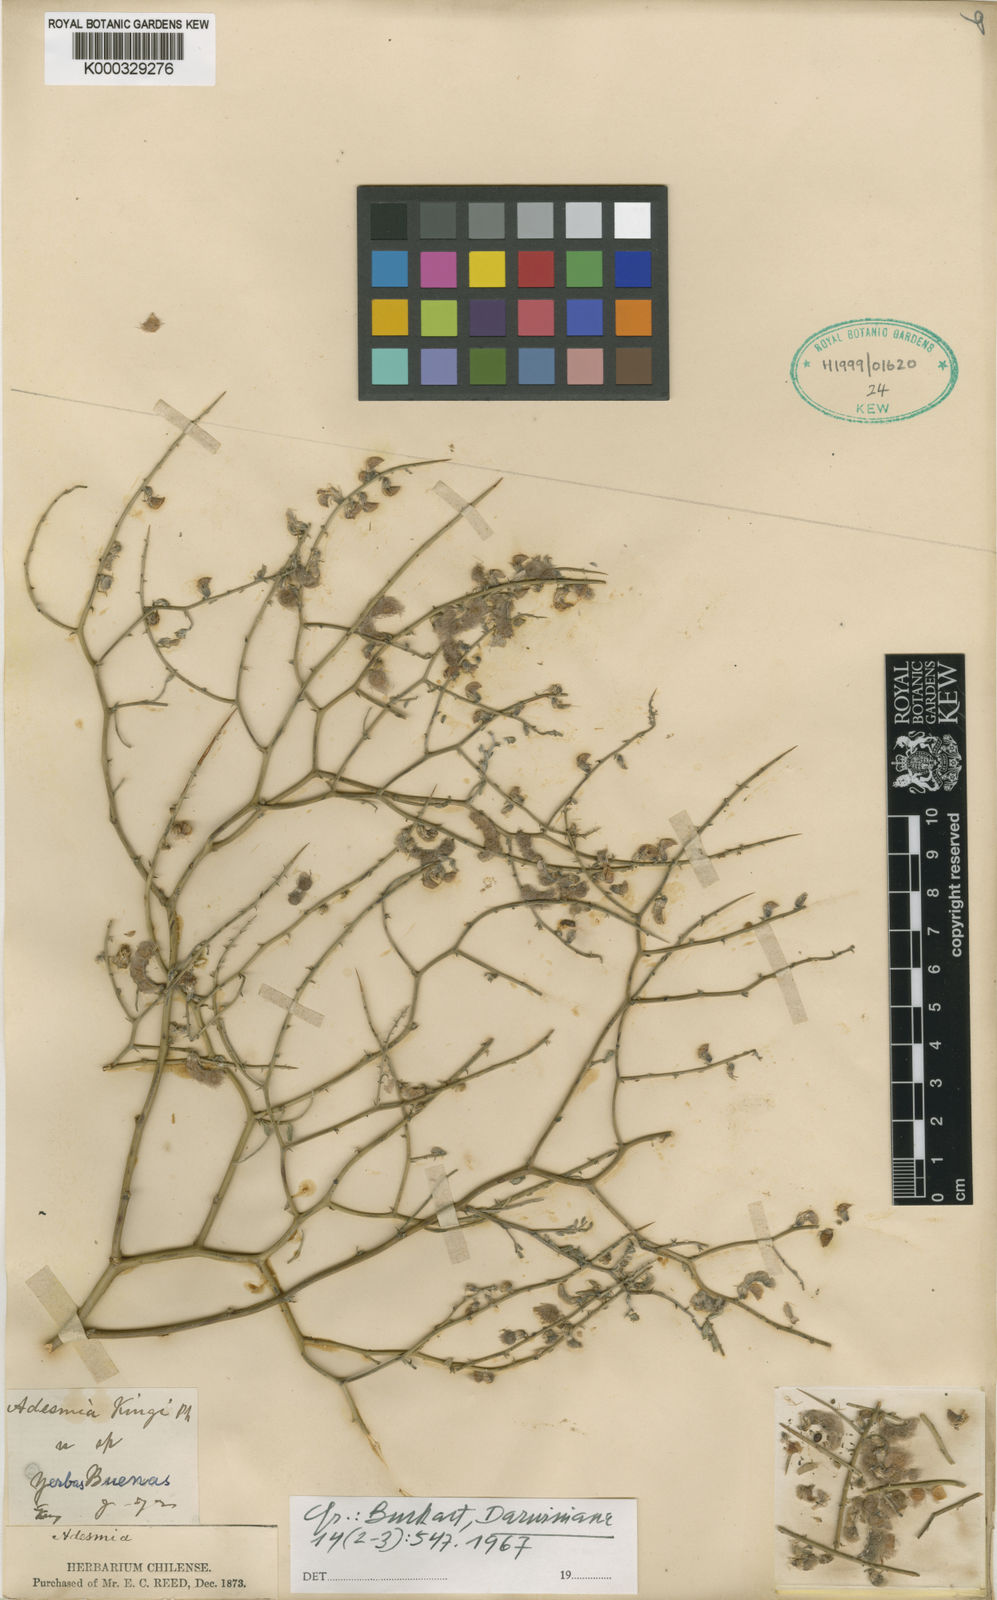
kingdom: Plantae
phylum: Tracheophyta
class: Magnoliopsida
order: Fabales
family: Fabaceae
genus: Adesmia
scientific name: Adesmia kingii
